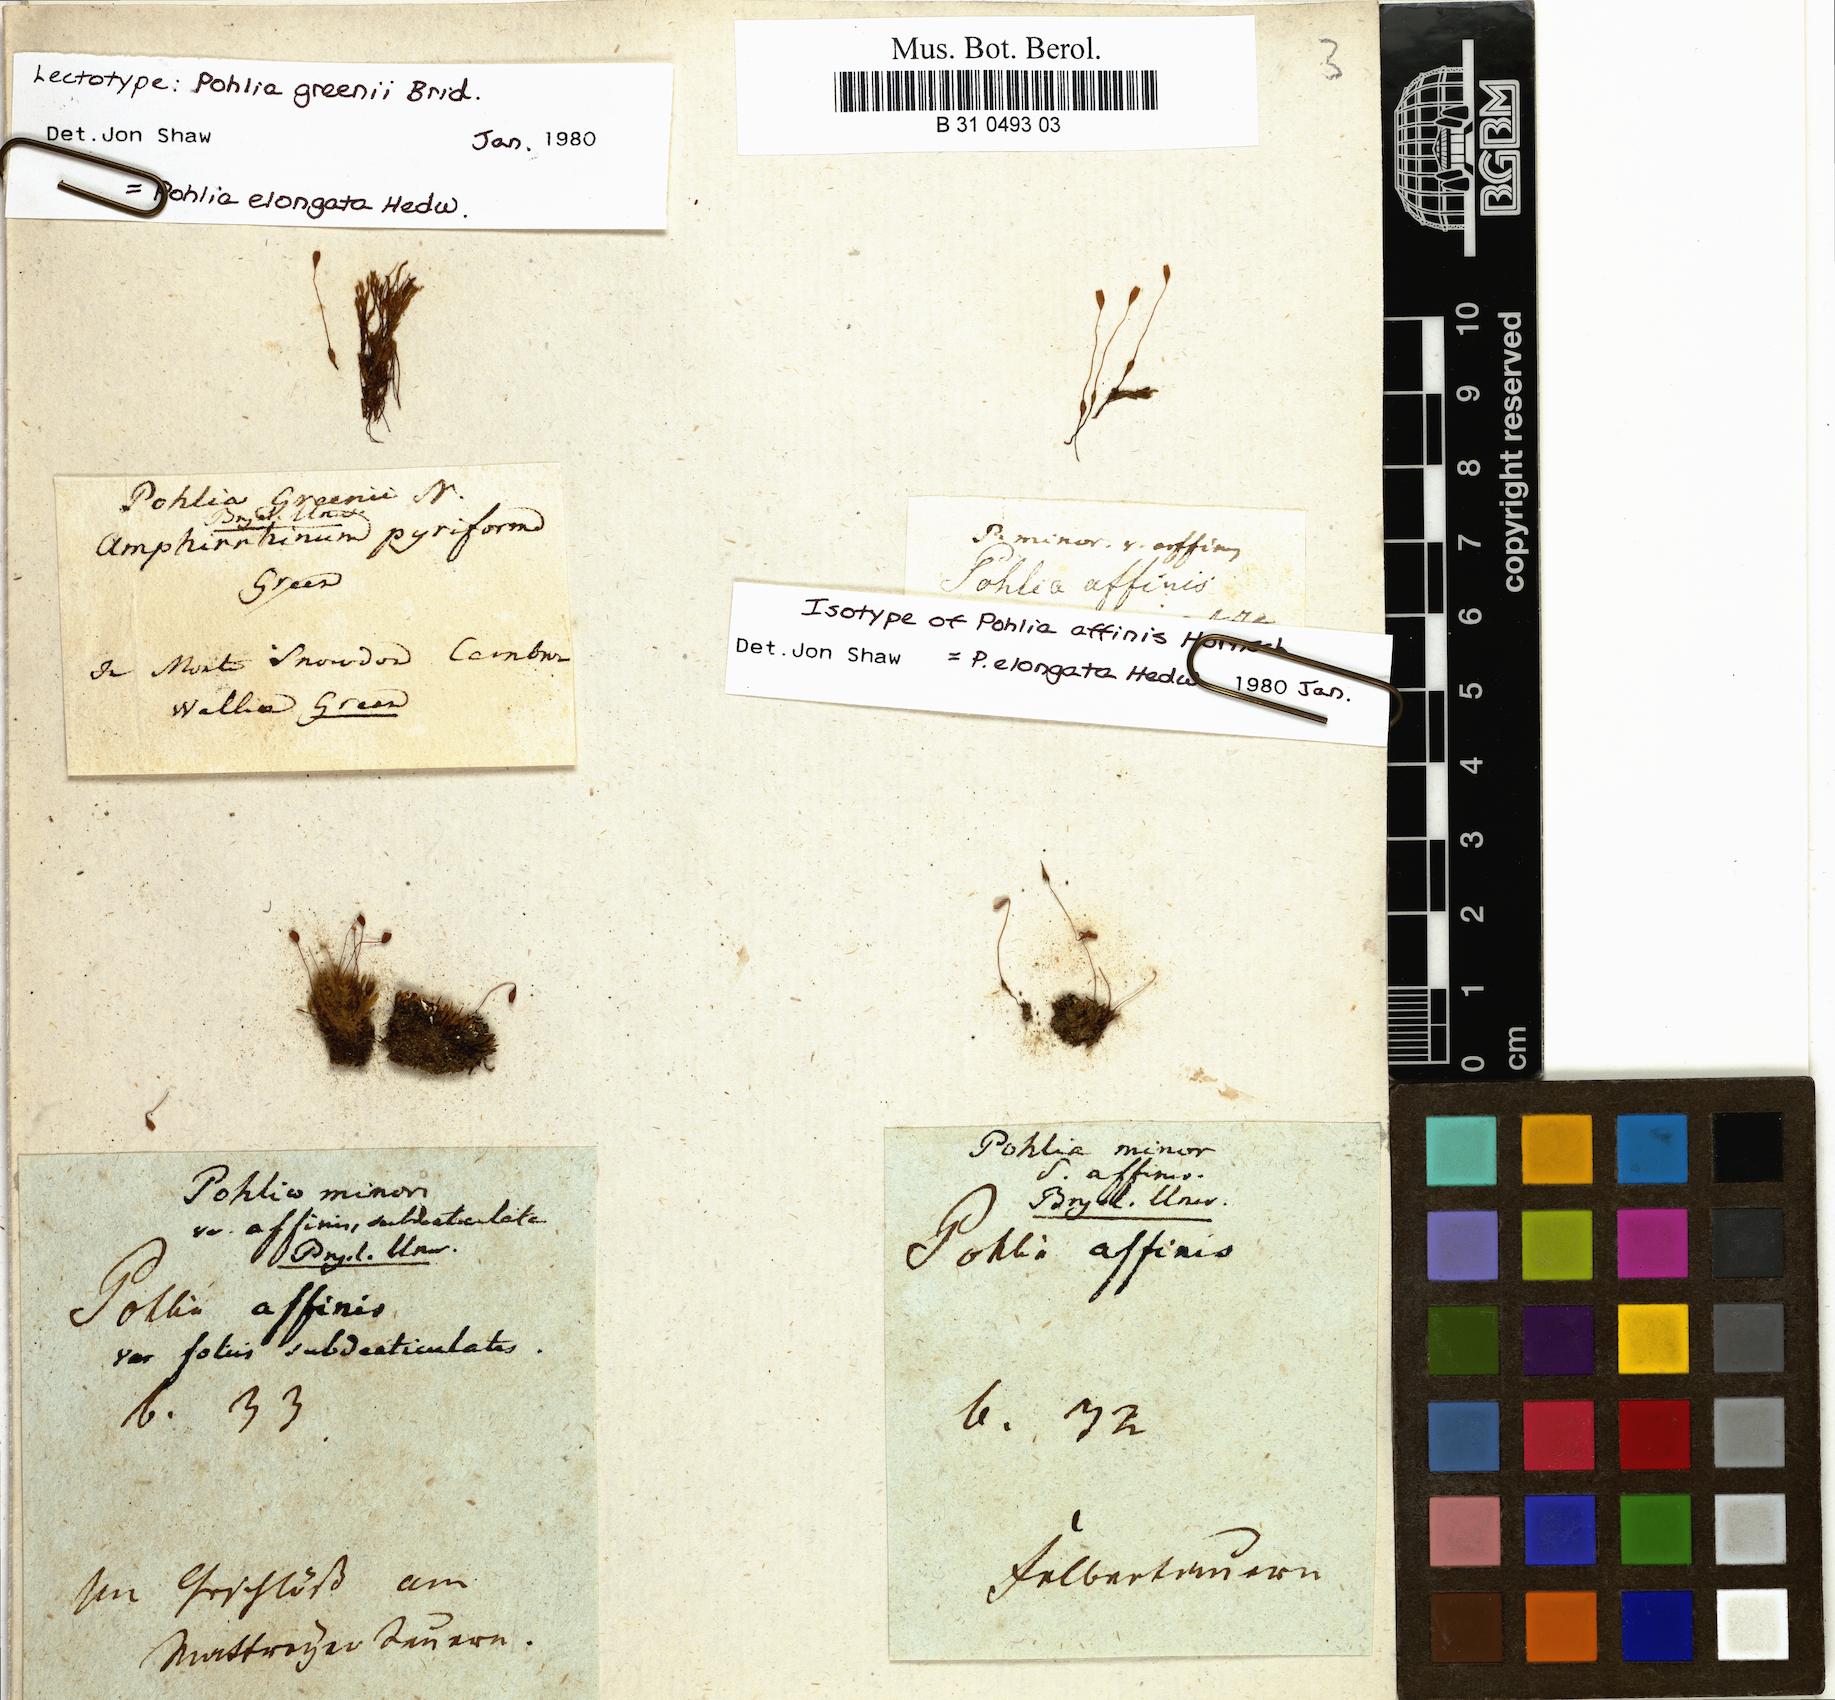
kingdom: Plantae
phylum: Bryophyta
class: Bryopsida
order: Bryales
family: Mniaceae
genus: Pohlia
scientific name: Pohlia elongata
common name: Long-fruited thread-moss
